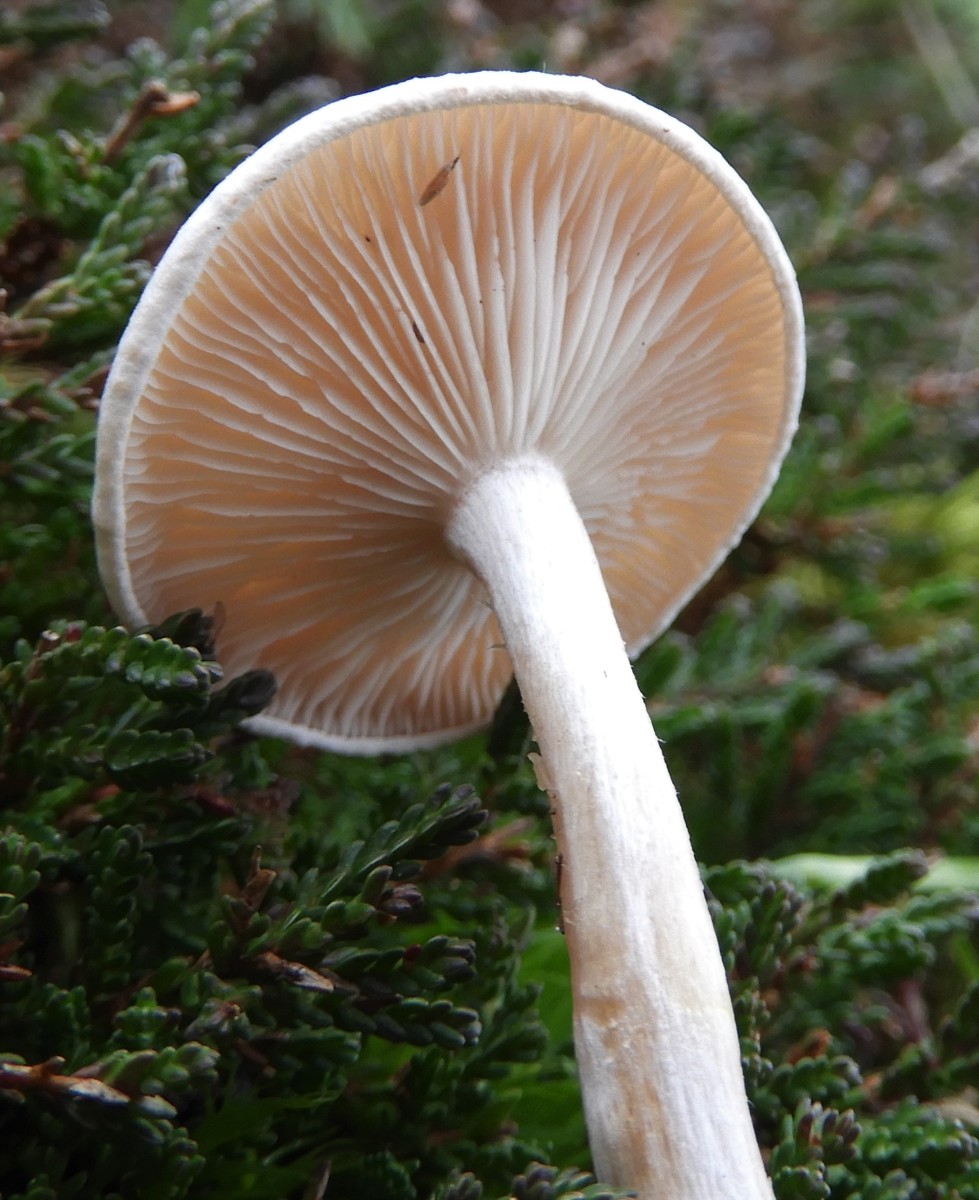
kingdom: Fungi
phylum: Basidiomycota
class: Agaricomycetes
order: Agaricales
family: Tricholomataceae
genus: Clitocybe
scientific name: Clitocybe rivulosa
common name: eng-tragthat
